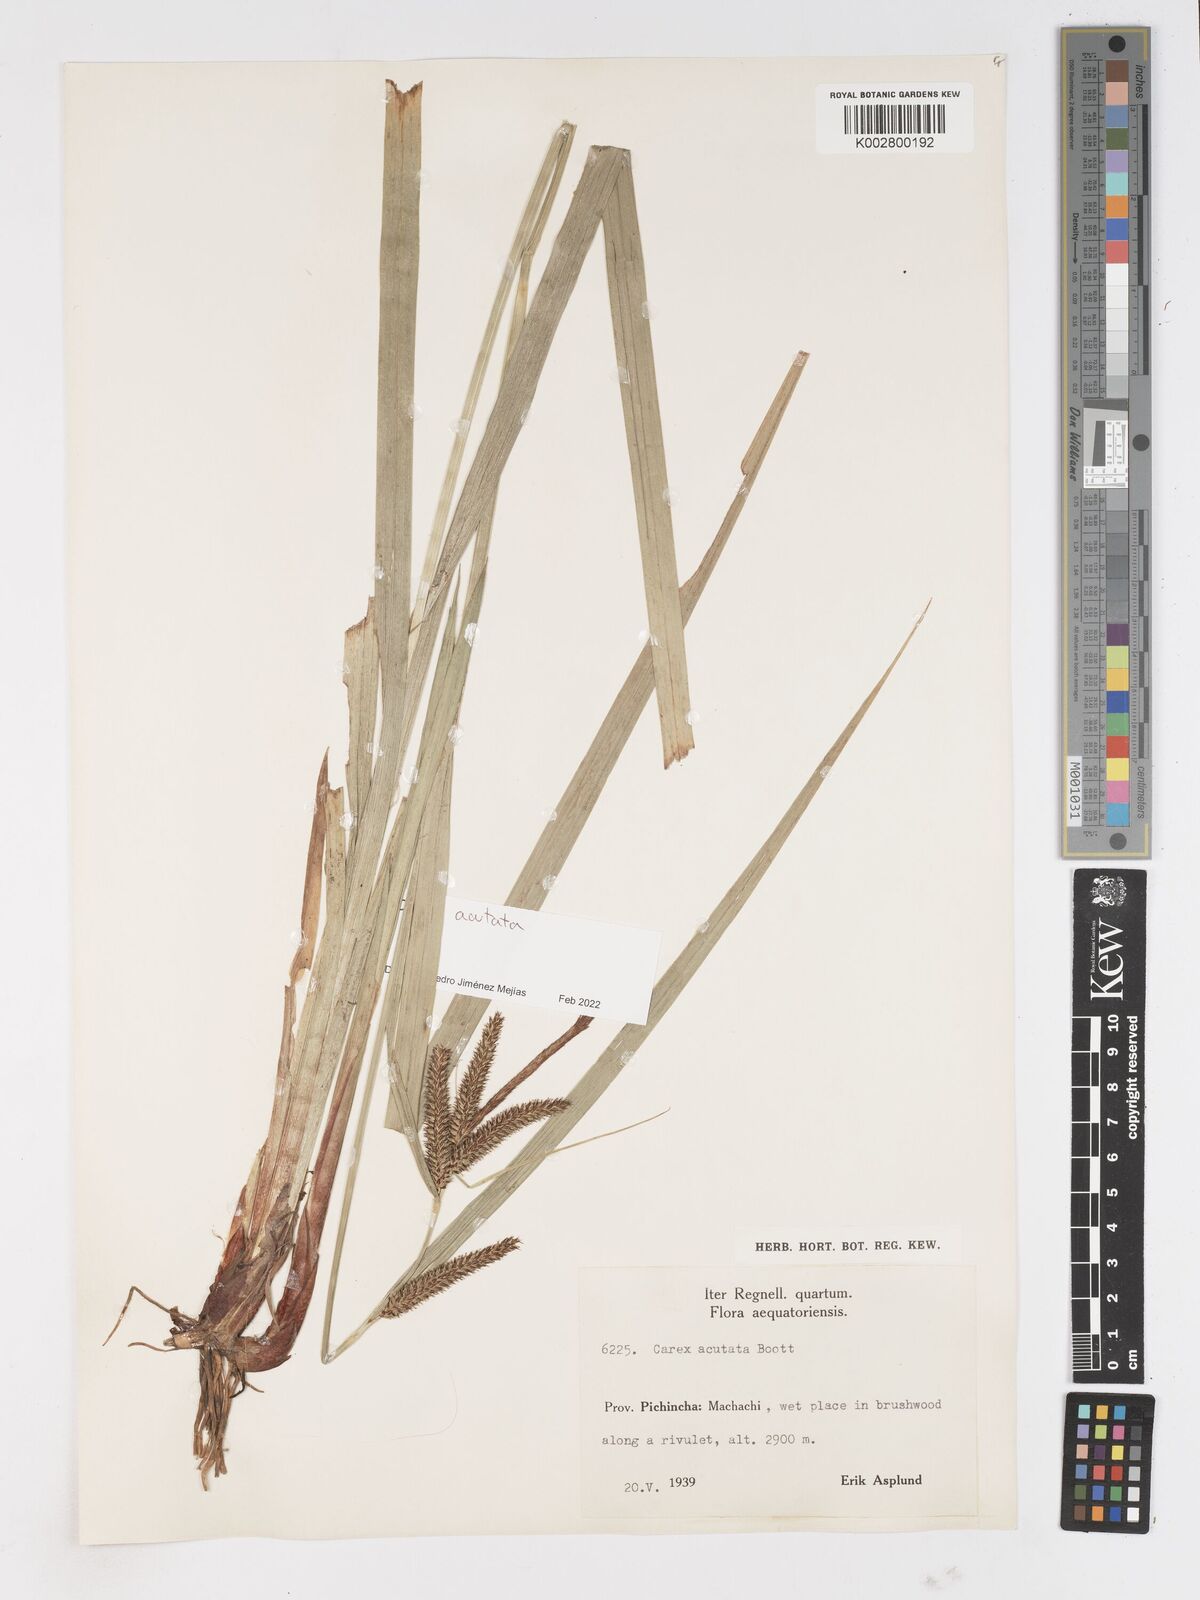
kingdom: Plantae
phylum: Tracheophyta
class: Liliopsida
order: Poales
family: Cyperaceae
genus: Carex
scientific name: Carex acutata
